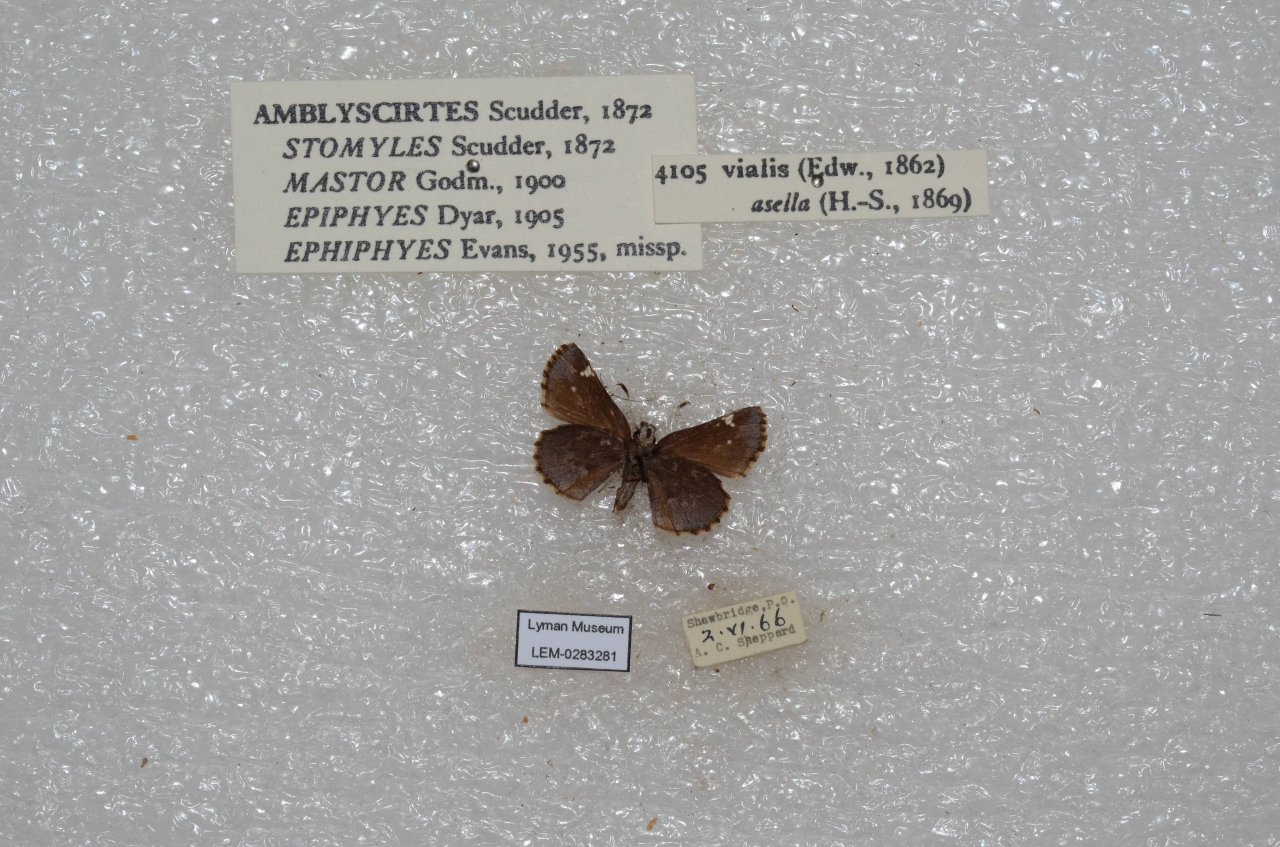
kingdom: Animalia
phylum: Arthropoda
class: Insecta
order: Lepidoptera
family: Hesperiidae
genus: Mastor
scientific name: Mastor vialis
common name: Common Roadside-Skipper
